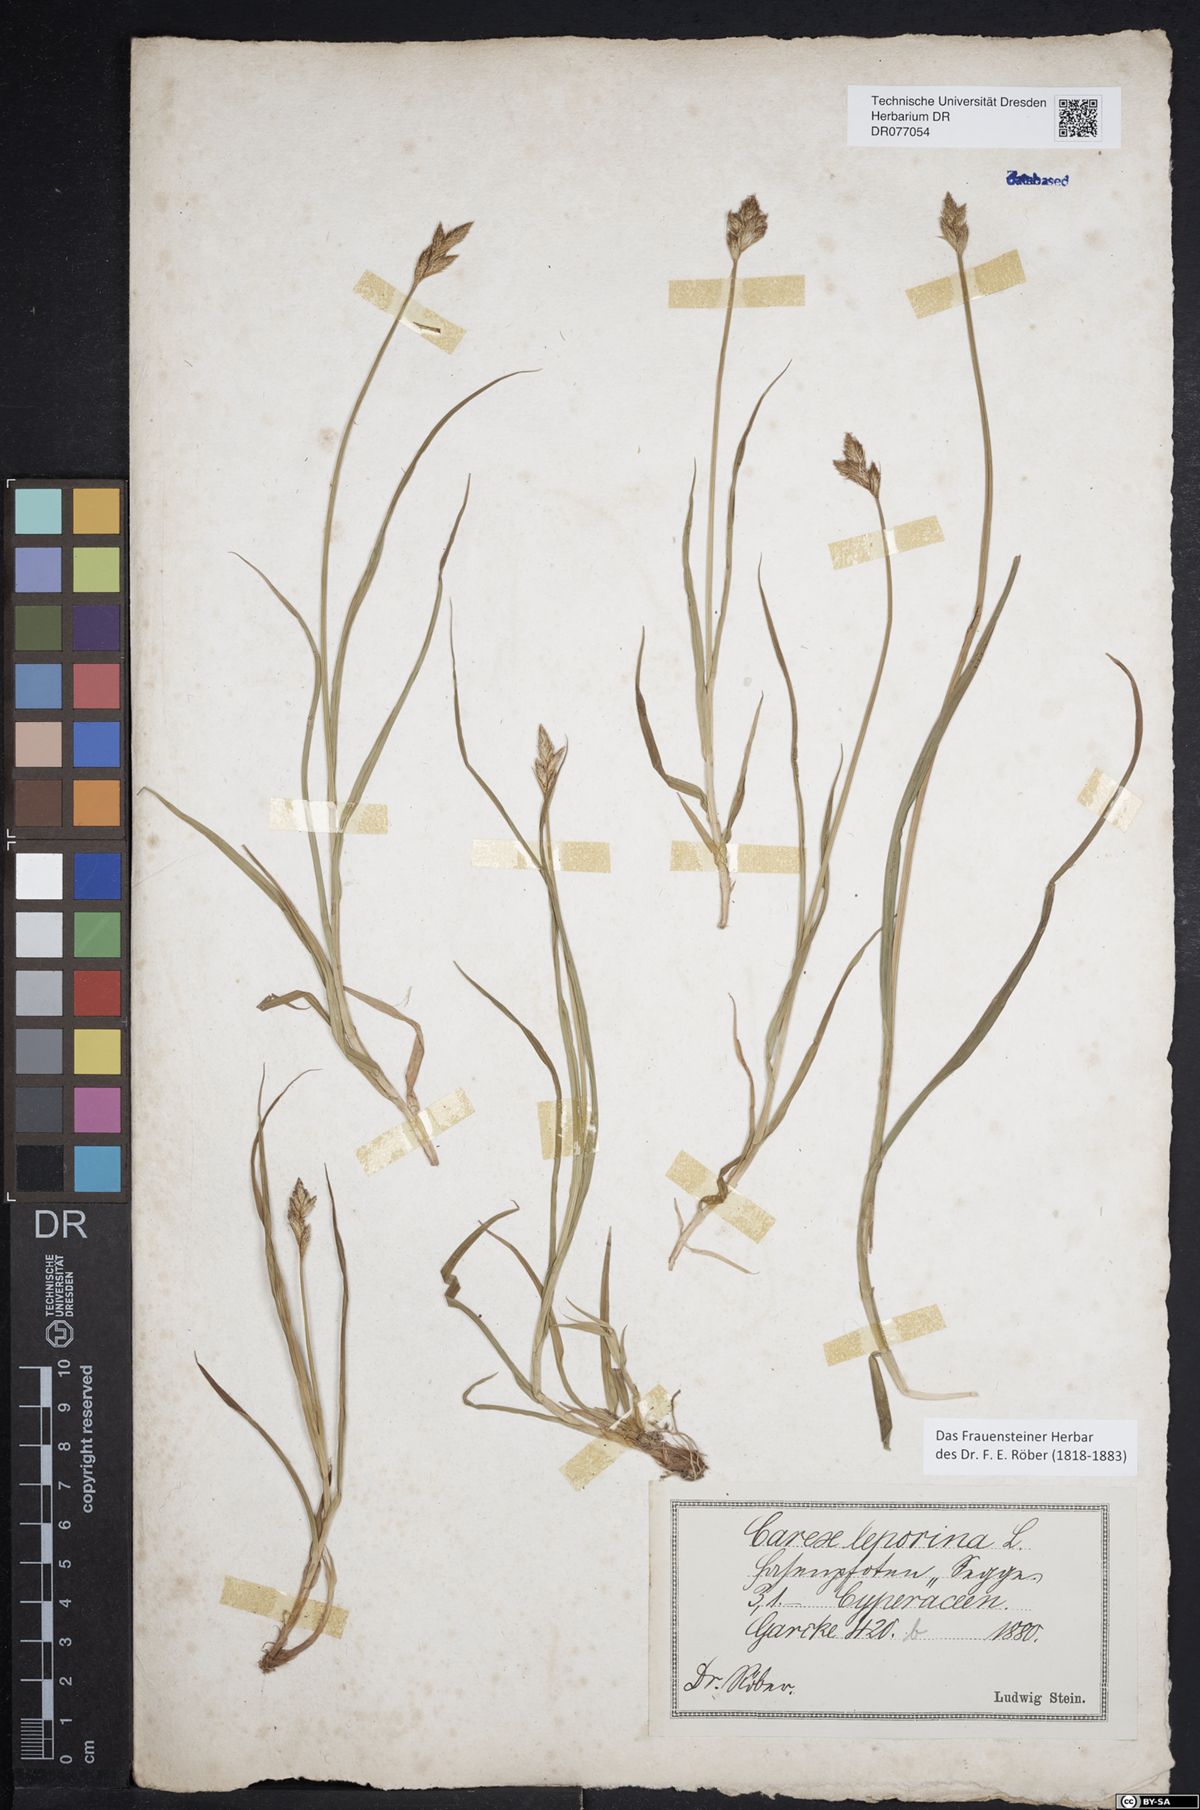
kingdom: Plantae
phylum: Tracheophyta
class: Liliopsida
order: Poales
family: Cyperaceae
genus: Carex
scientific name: Carex leporina
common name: Oval sedge
